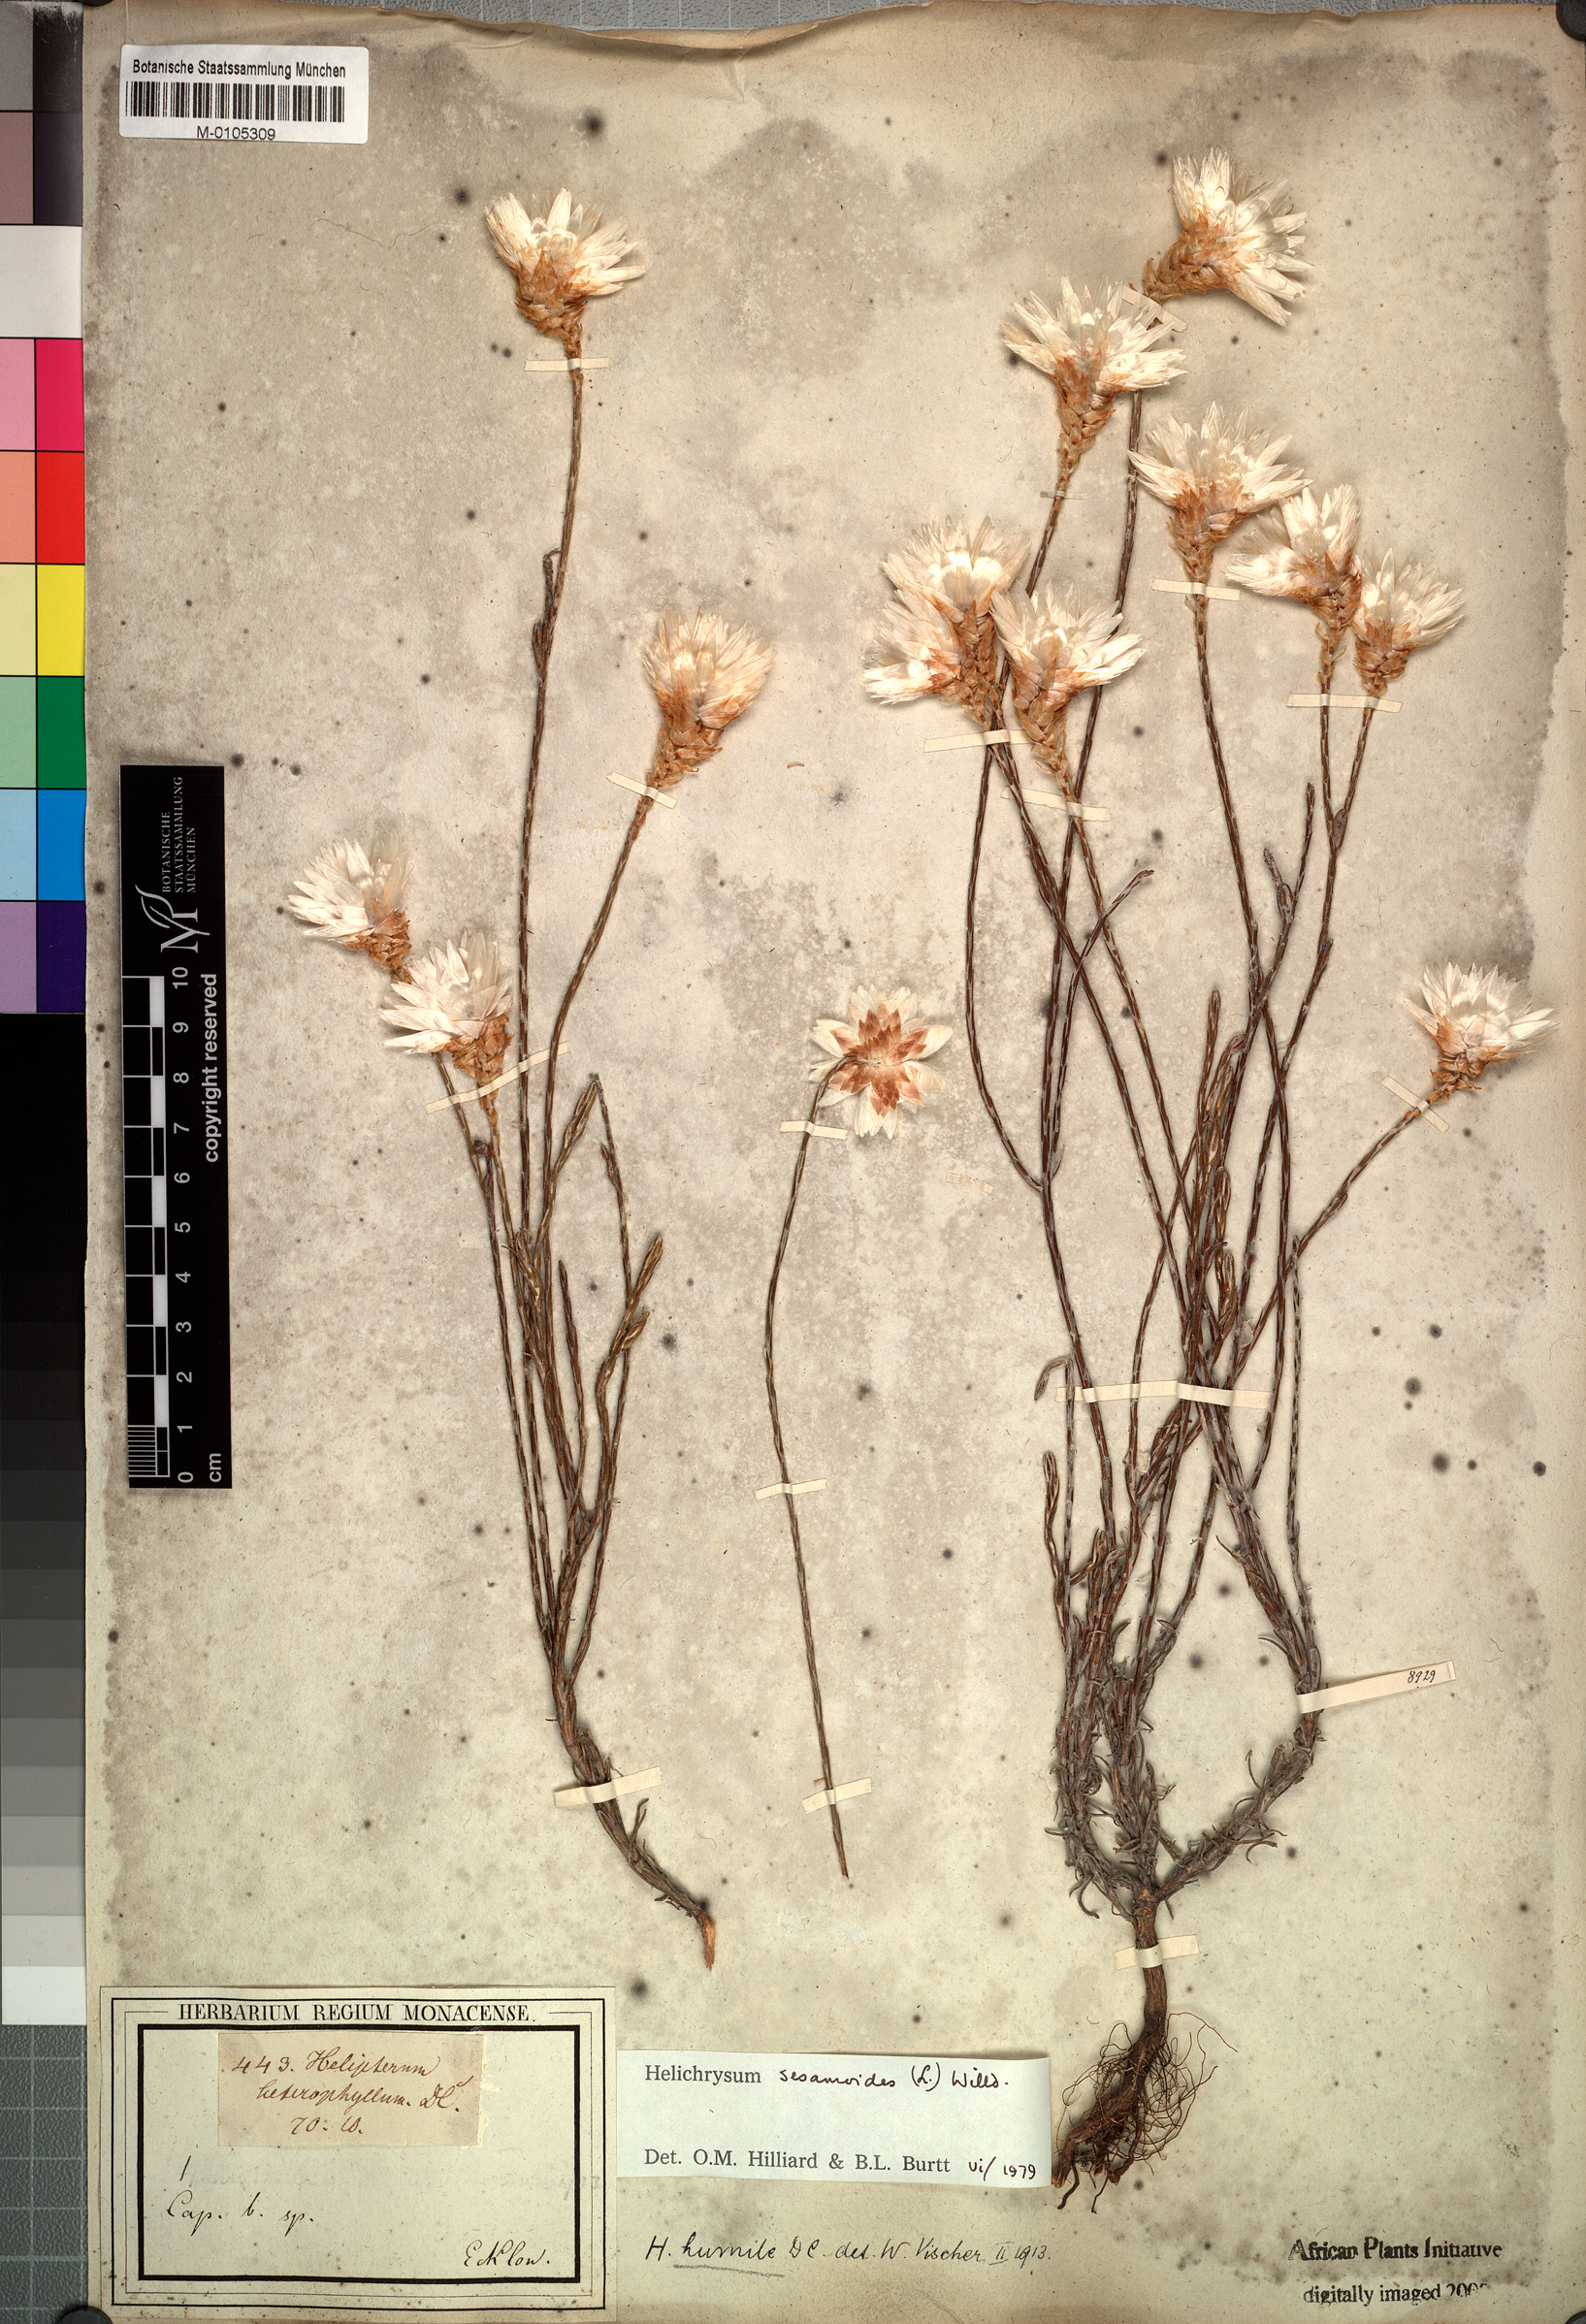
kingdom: Plantae
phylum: Tracheophyta
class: Magnoliopsida
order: Asterales
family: Asteraceae
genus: Edmondia
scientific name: Edmondia sesamoides
